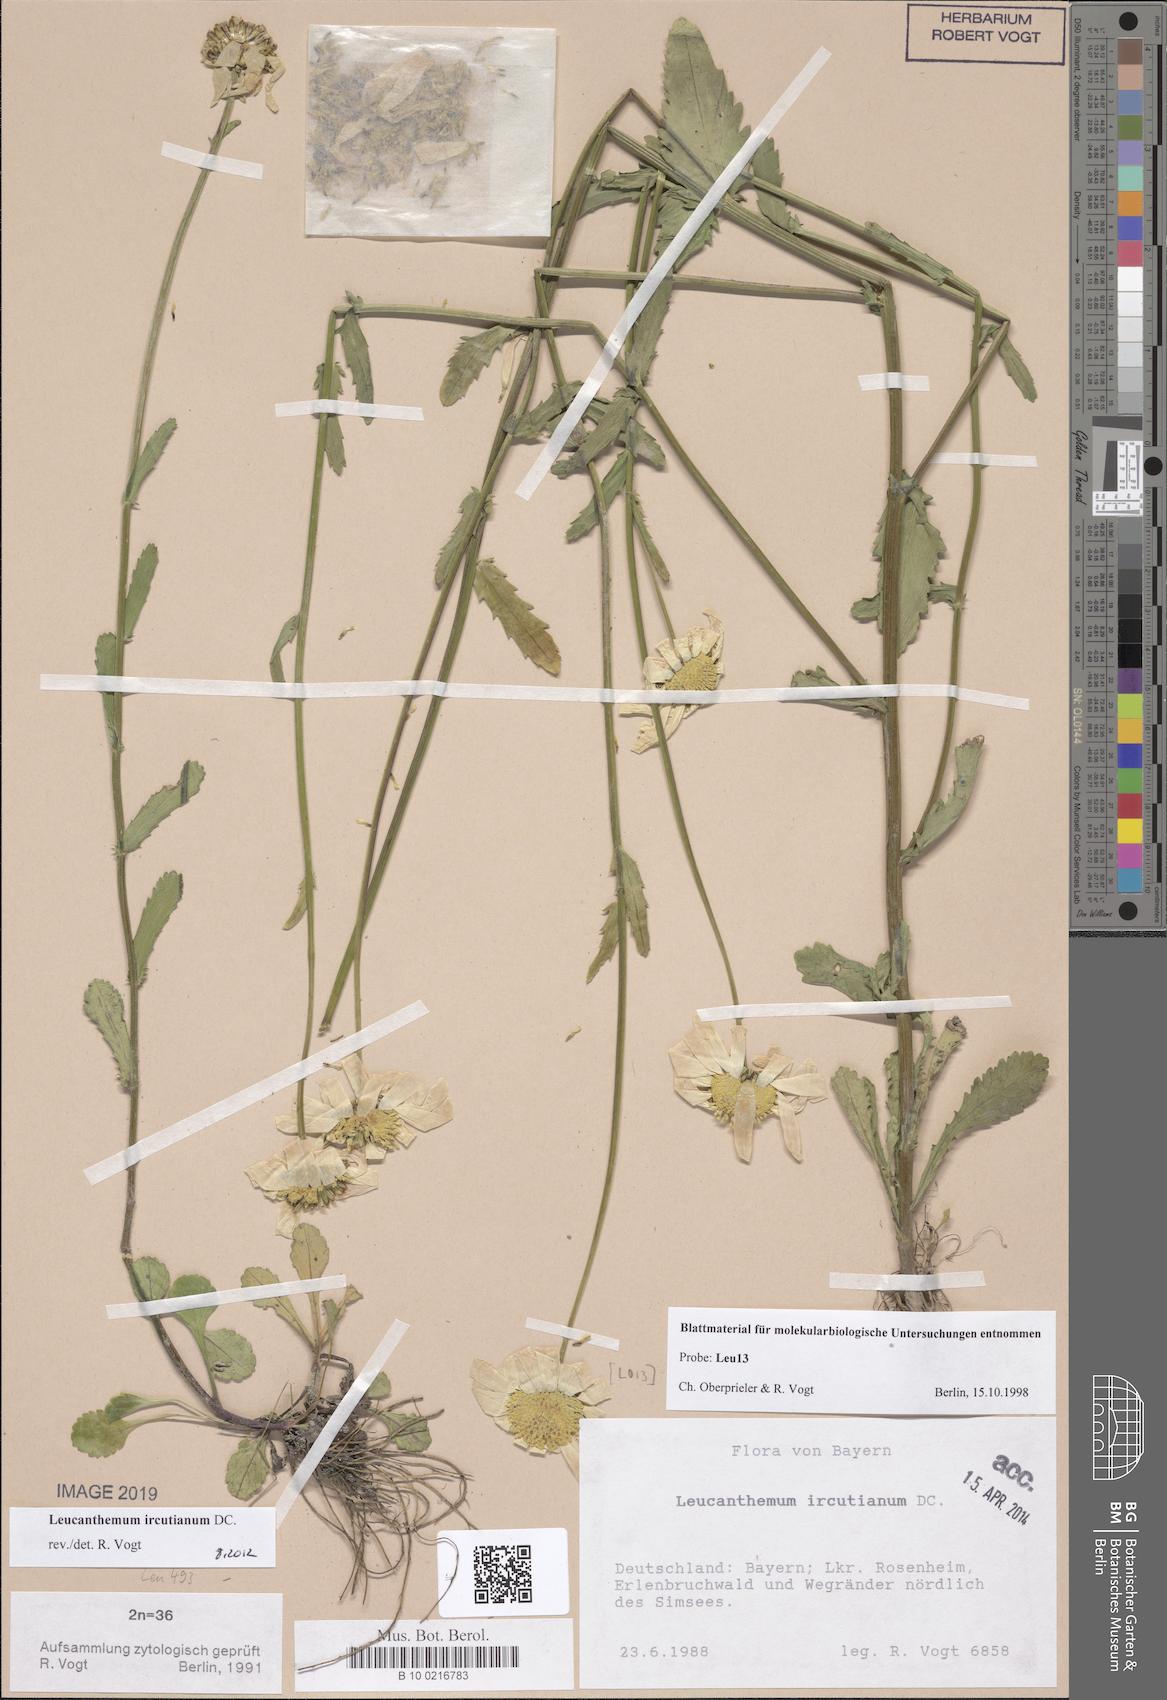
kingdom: Plantae
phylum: Tracheophyta
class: Magnoliopsida
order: Asterales
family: Asteraceae
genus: Leucanthemum
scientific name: Leucanthemum ircutianum
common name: Daisy
